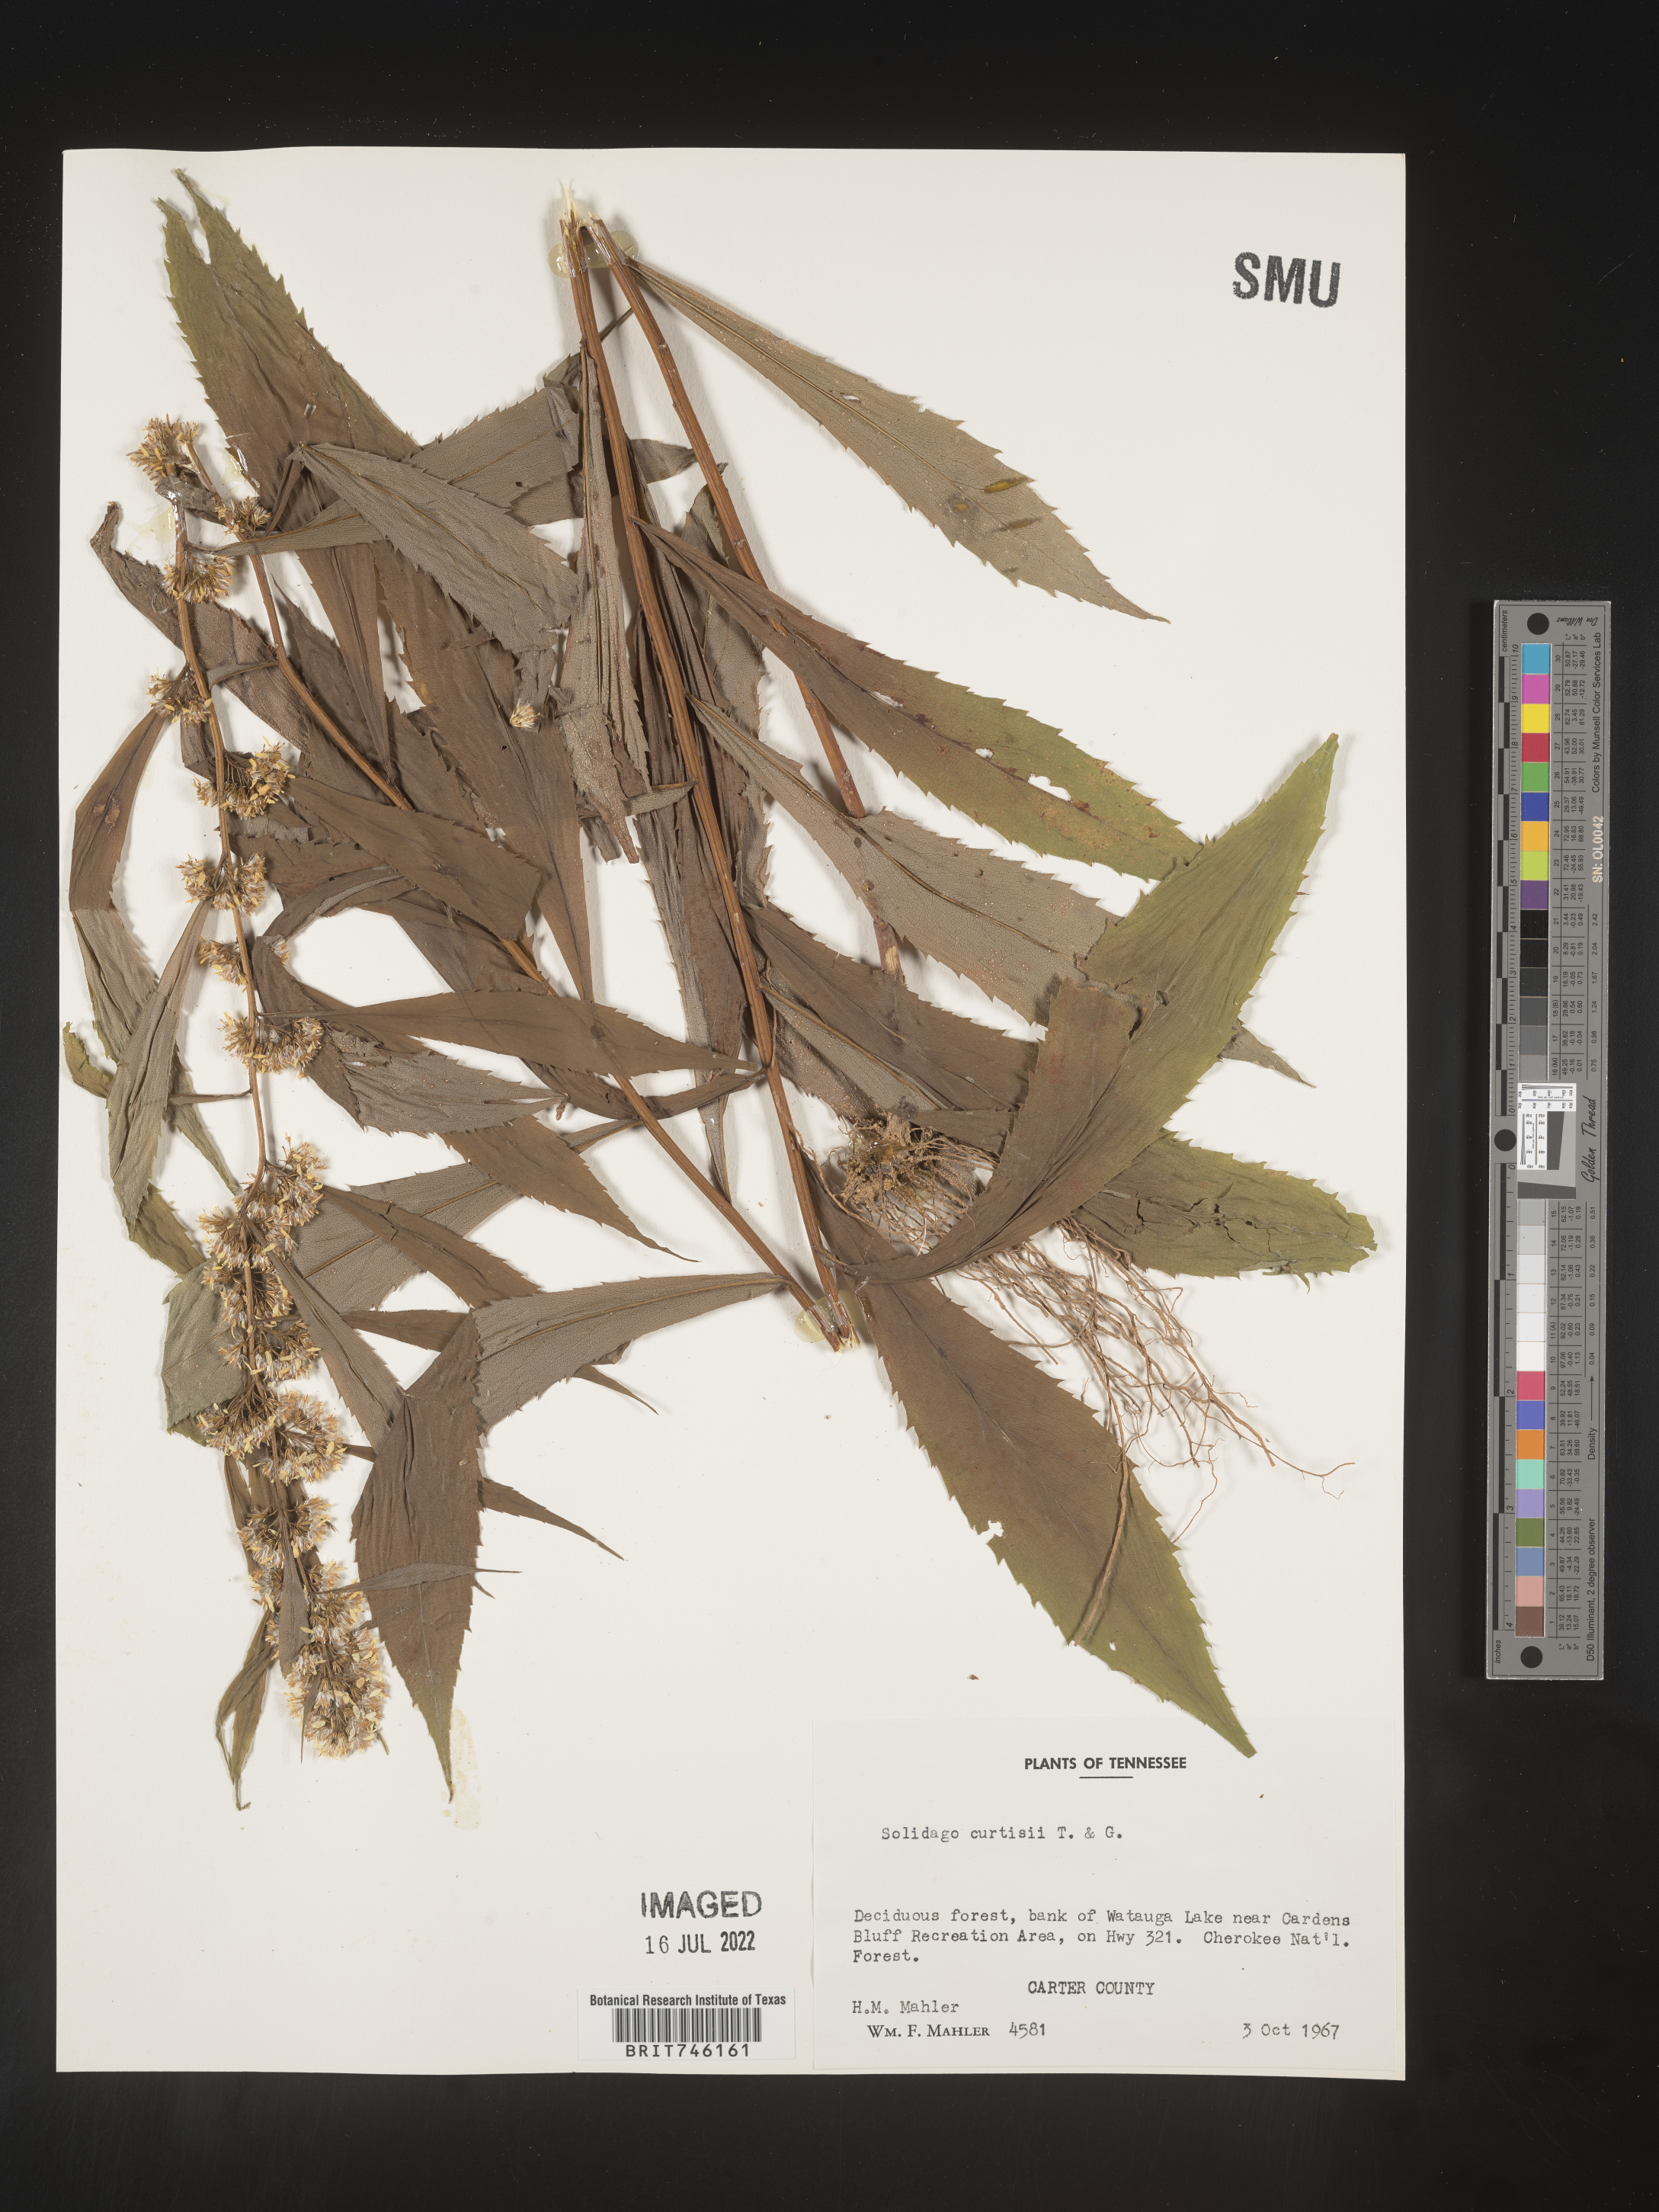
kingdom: Plantae
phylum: Tracheophyta
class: Magnoliopsida
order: Asterales
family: Asteraceae
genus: Solidago
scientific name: Solidago curtisii
